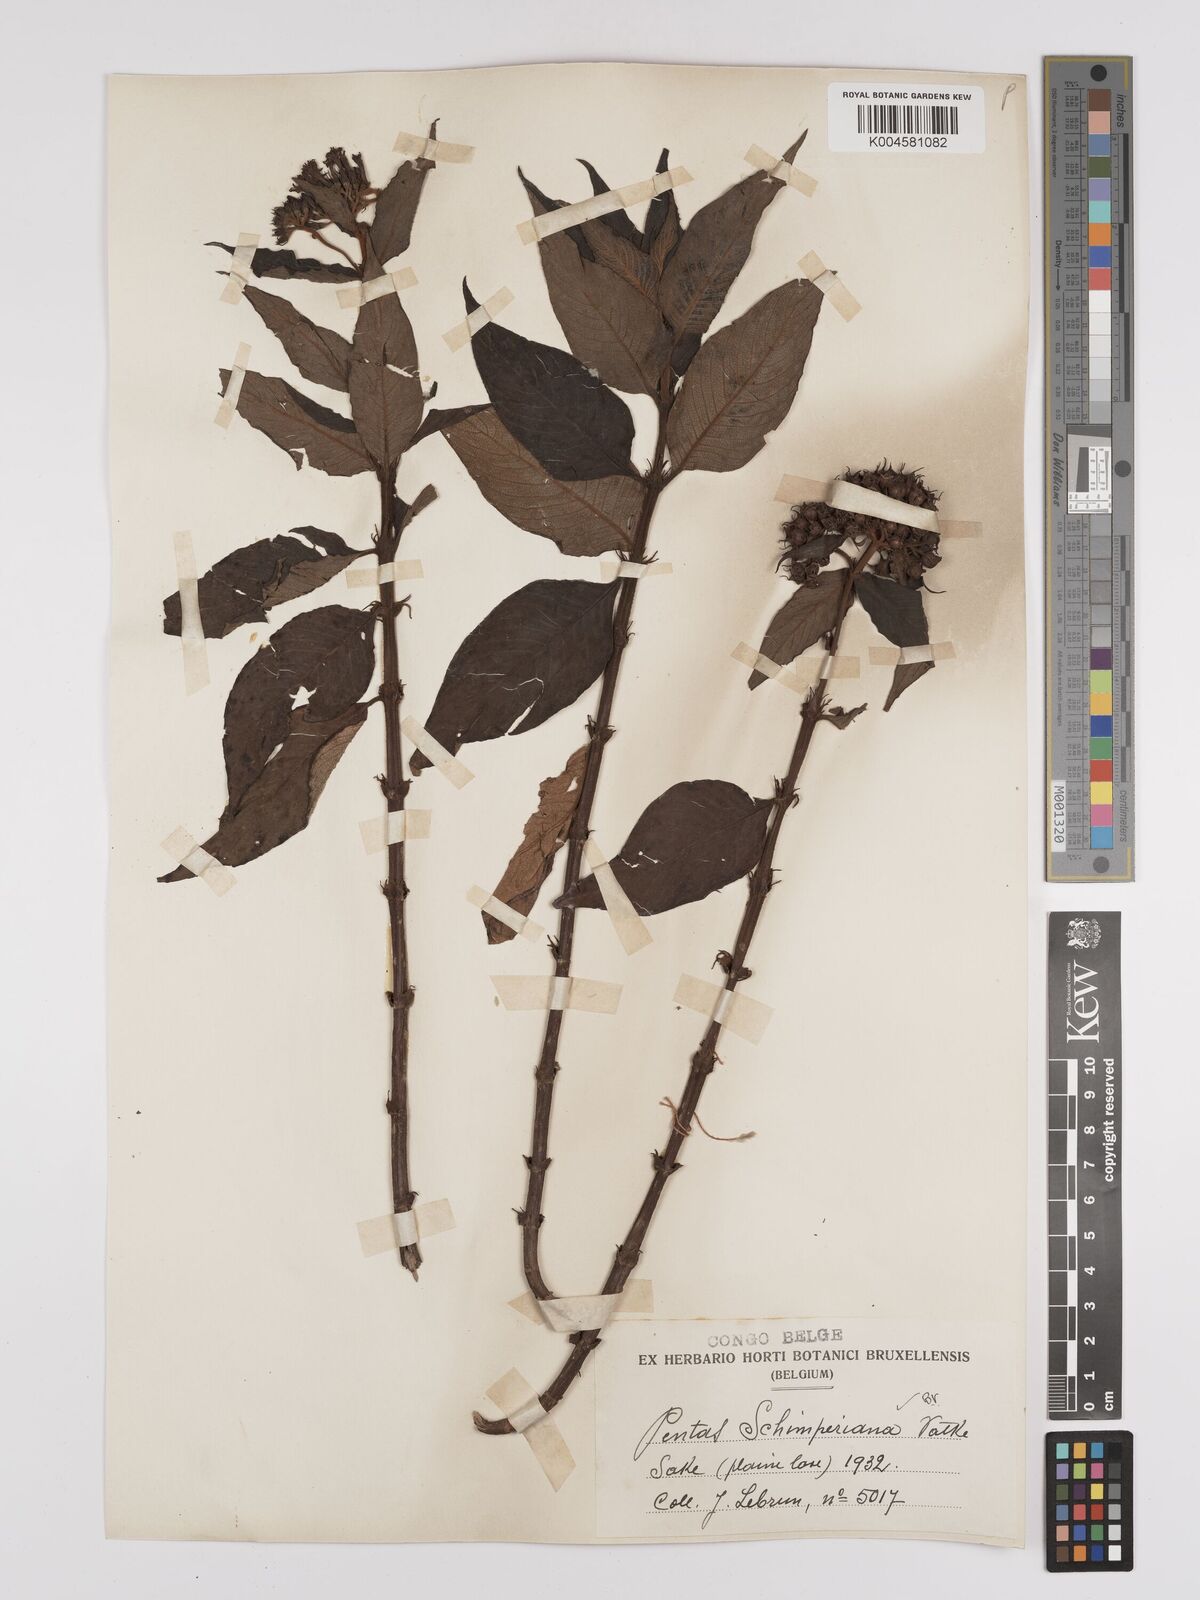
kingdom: Plantae
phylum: Tracheophyta
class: Magnoliopsida
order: Gentianales
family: Rubiaceae
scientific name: Rubiaceae
